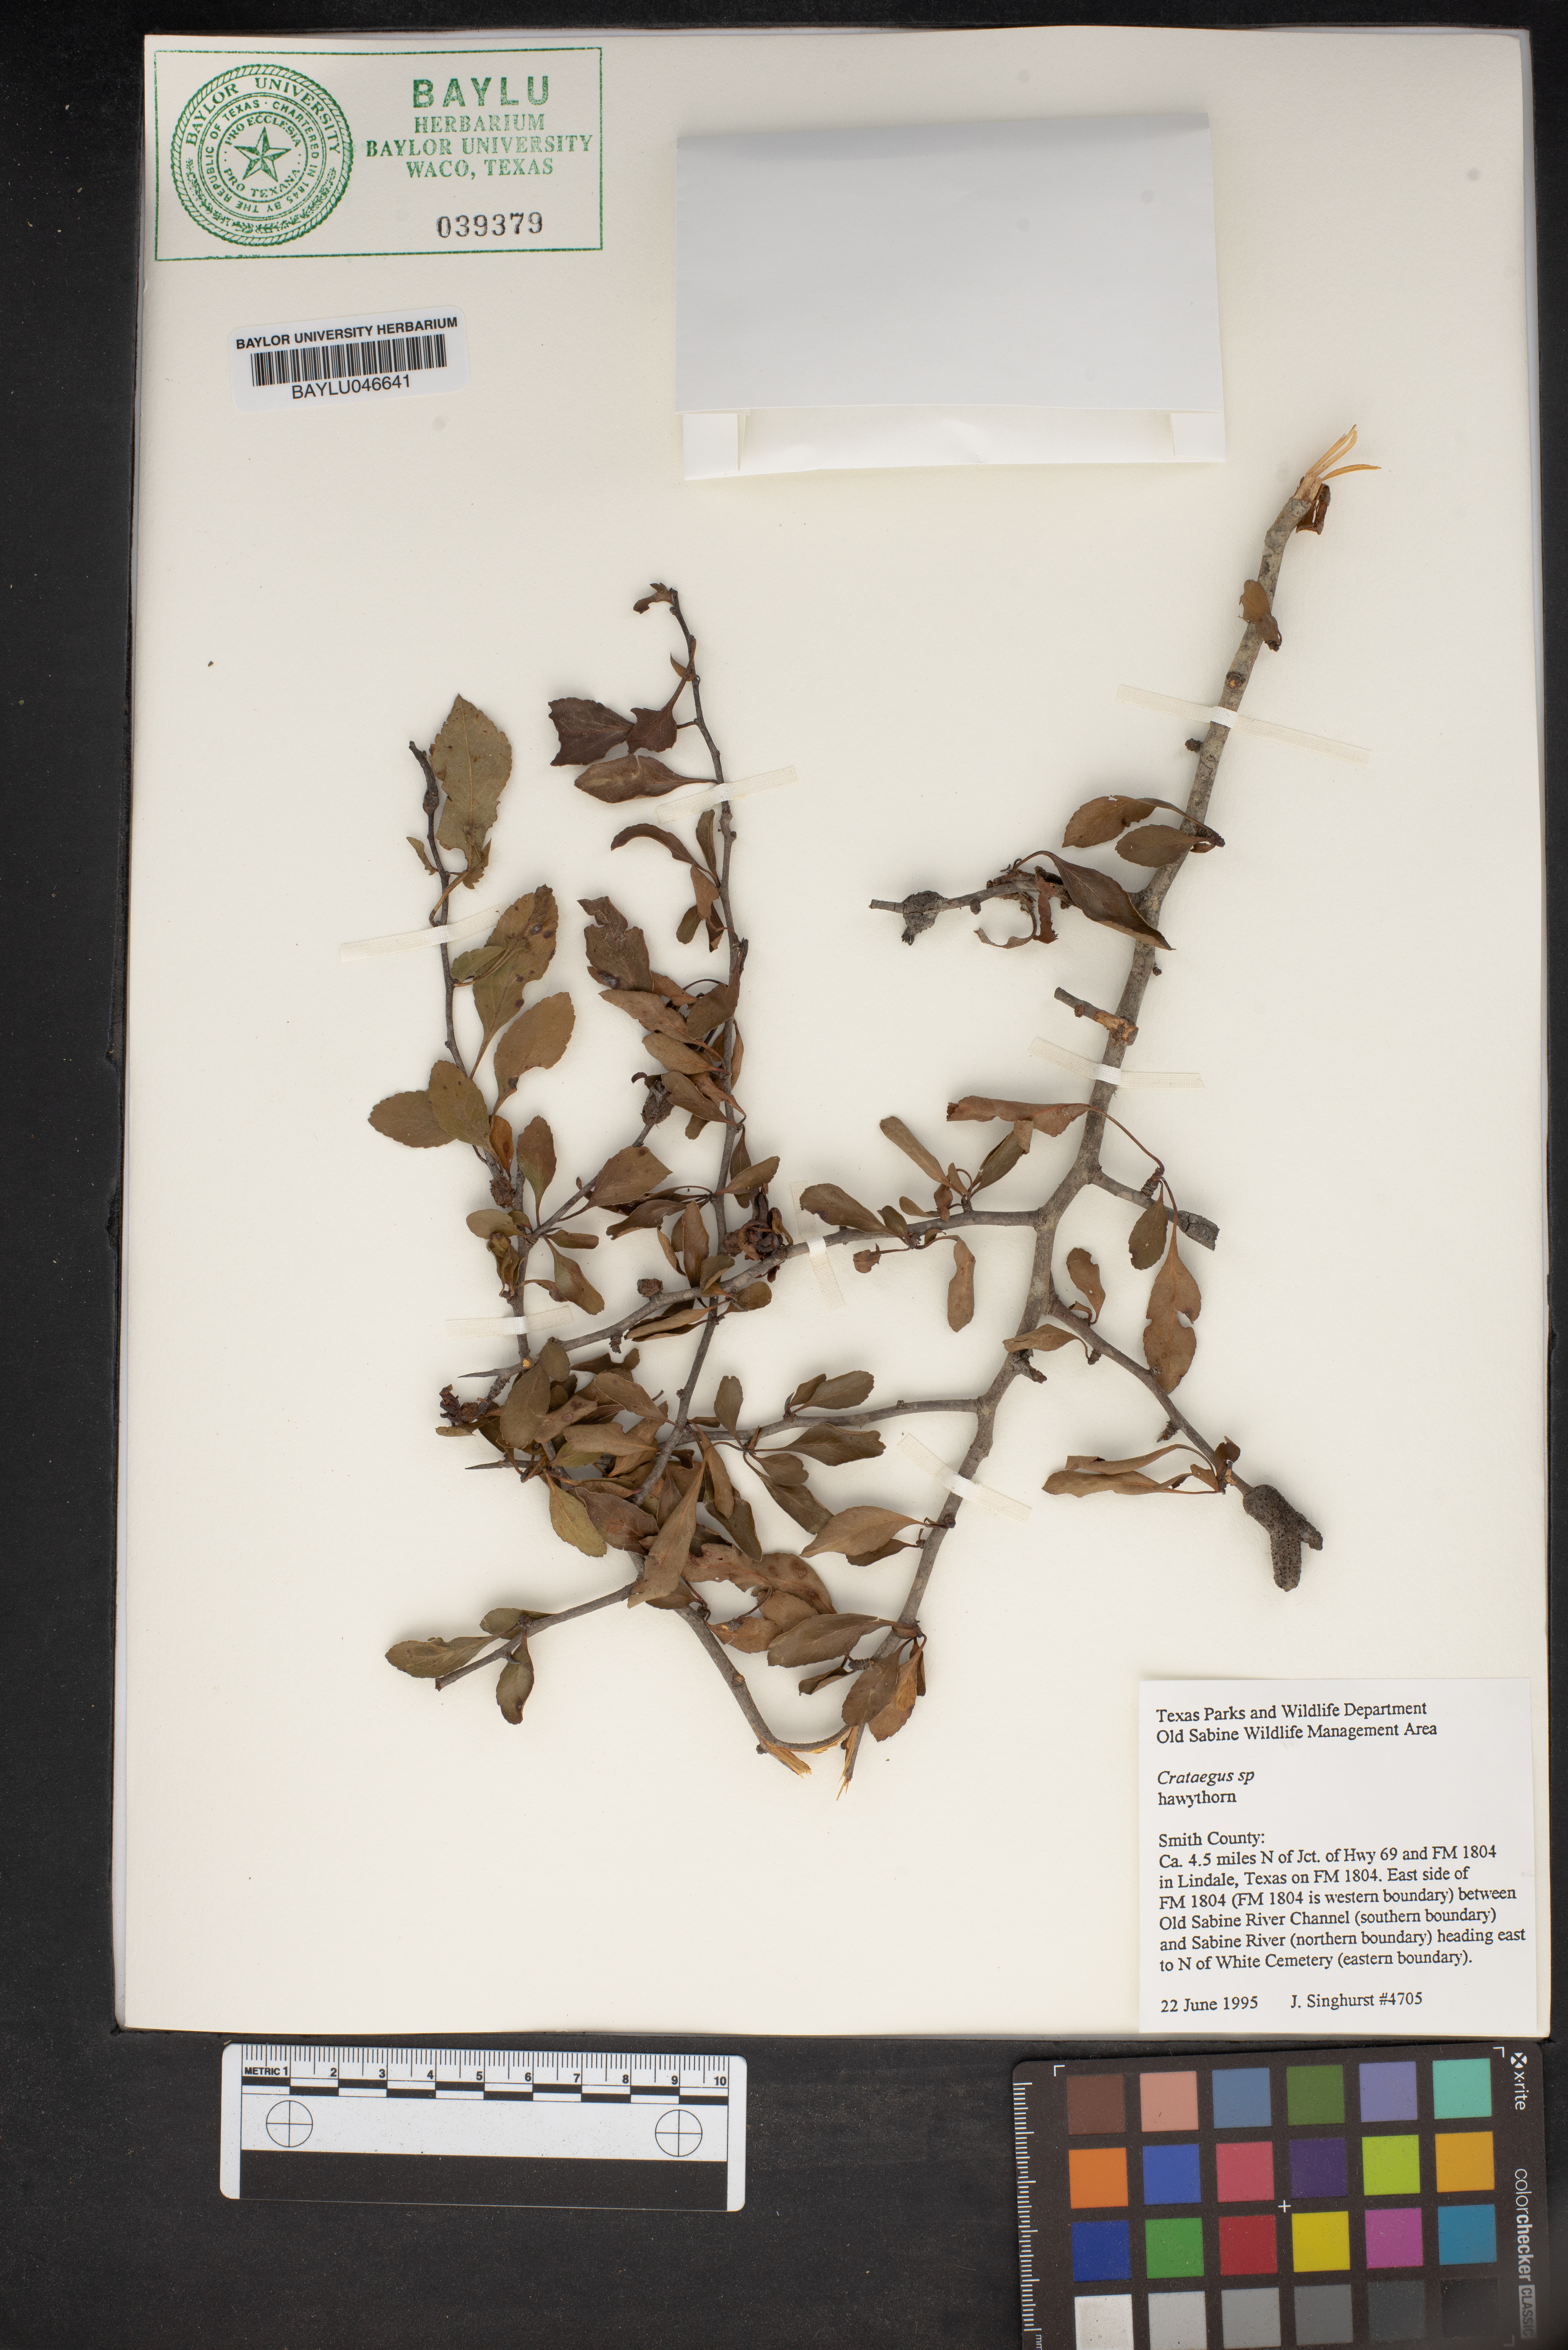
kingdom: Plantae
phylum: Tracheophyta
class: Magnoliopsida
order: Rosales
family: Rosaceae
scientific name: Rosaceae
